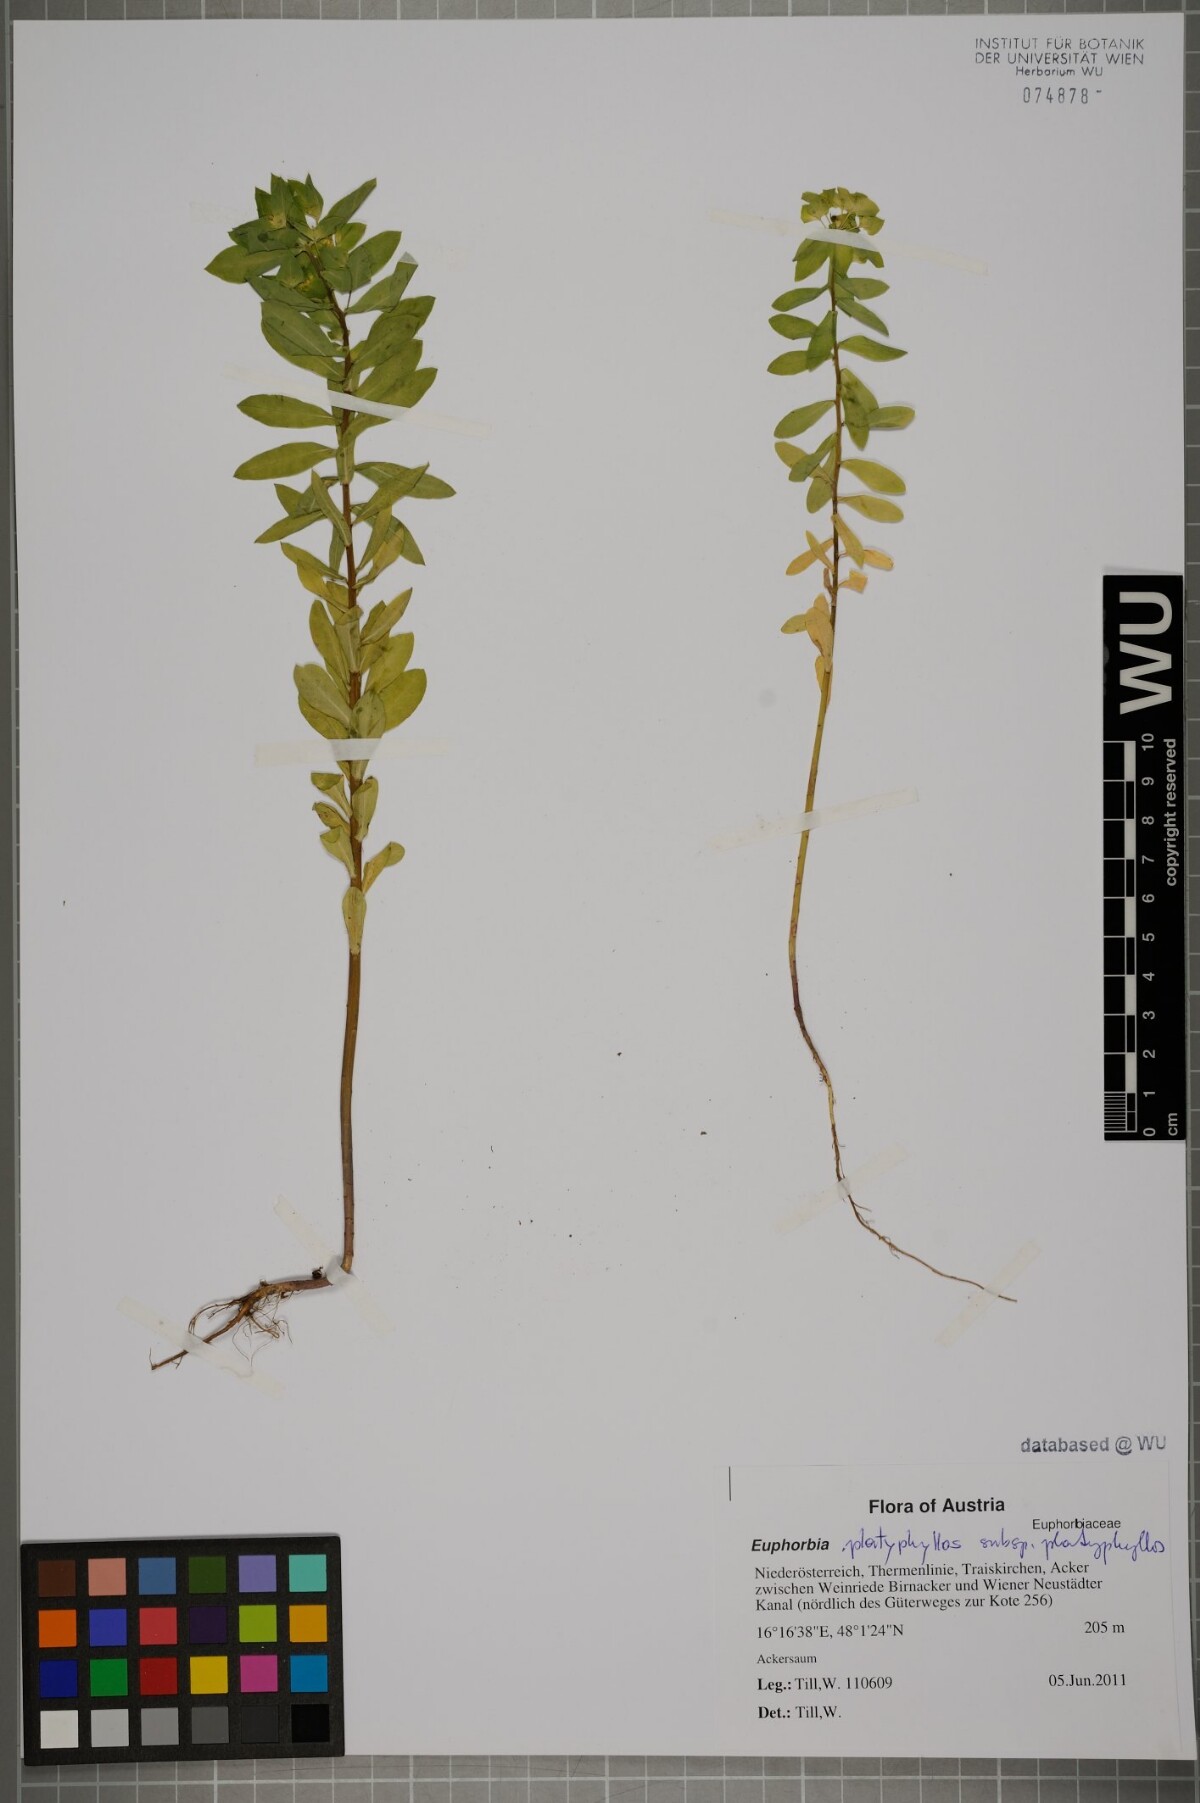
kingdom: Plantae
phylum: Tracheophyta
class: Magnoliopsida
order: Malpighiales
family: Euphorbiaceae
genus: Euphorbia
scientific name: Euphorbia platyphyllos
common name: Broad-leaved spurge
